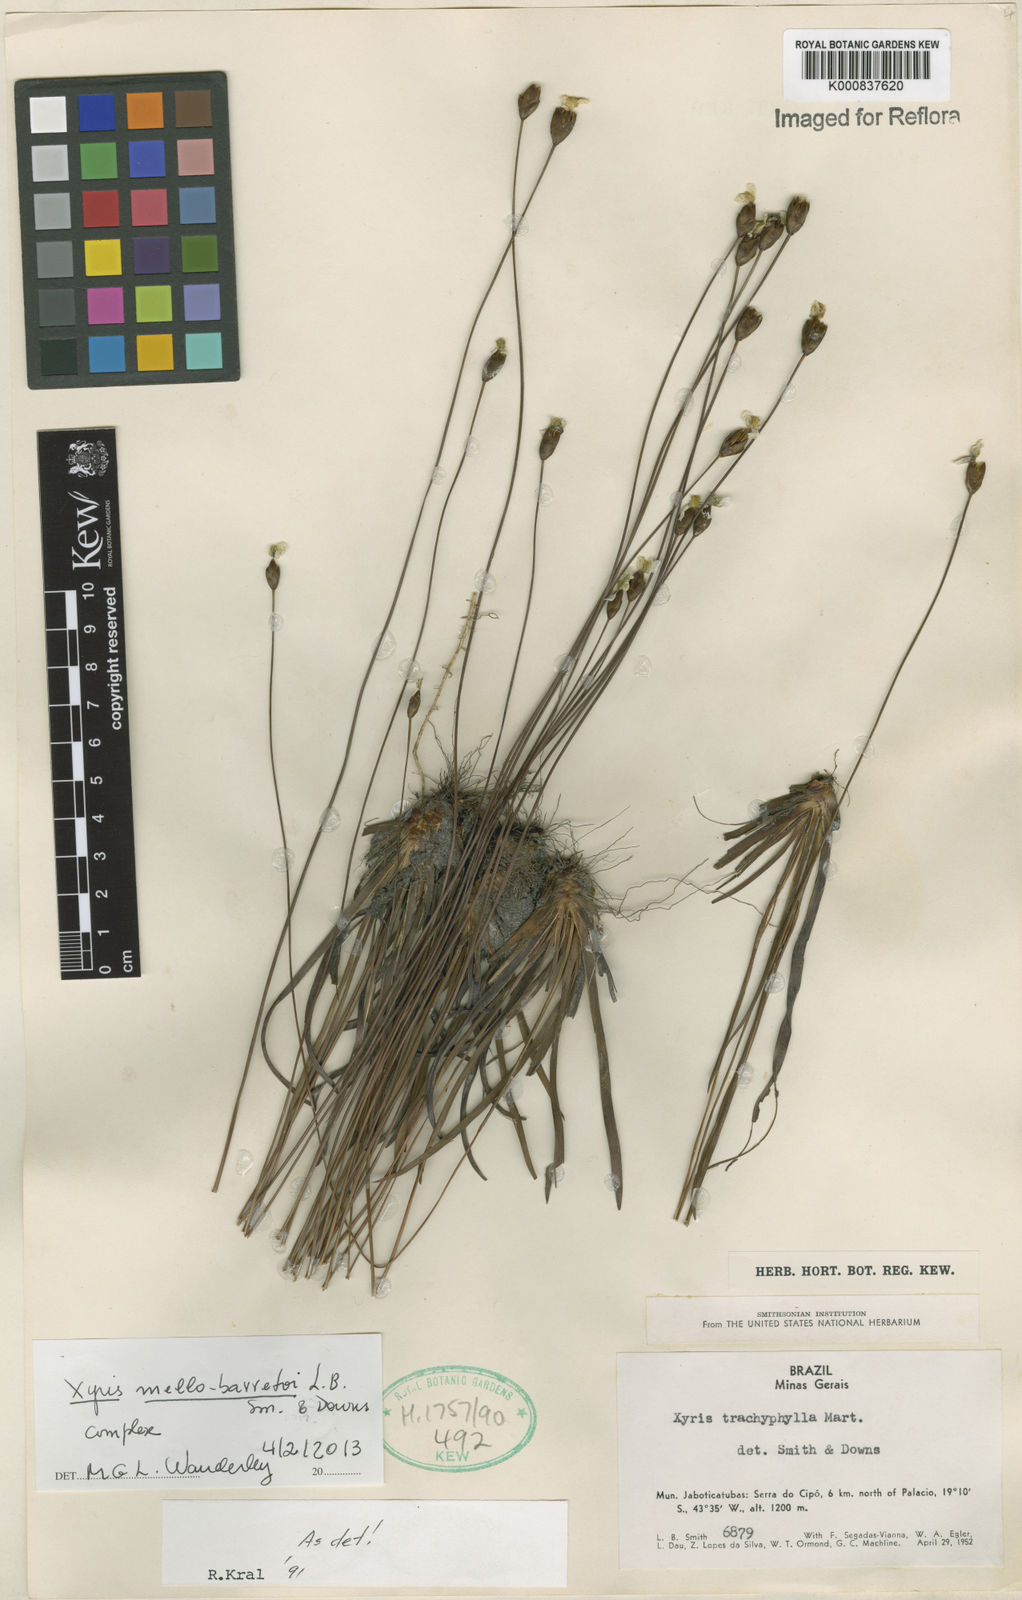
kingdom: Plantae
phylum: Tracheophyta
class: Liliopsida
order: Poales
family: Xyridaceae
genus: Xyris
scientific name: Xyris mello-barretoi
